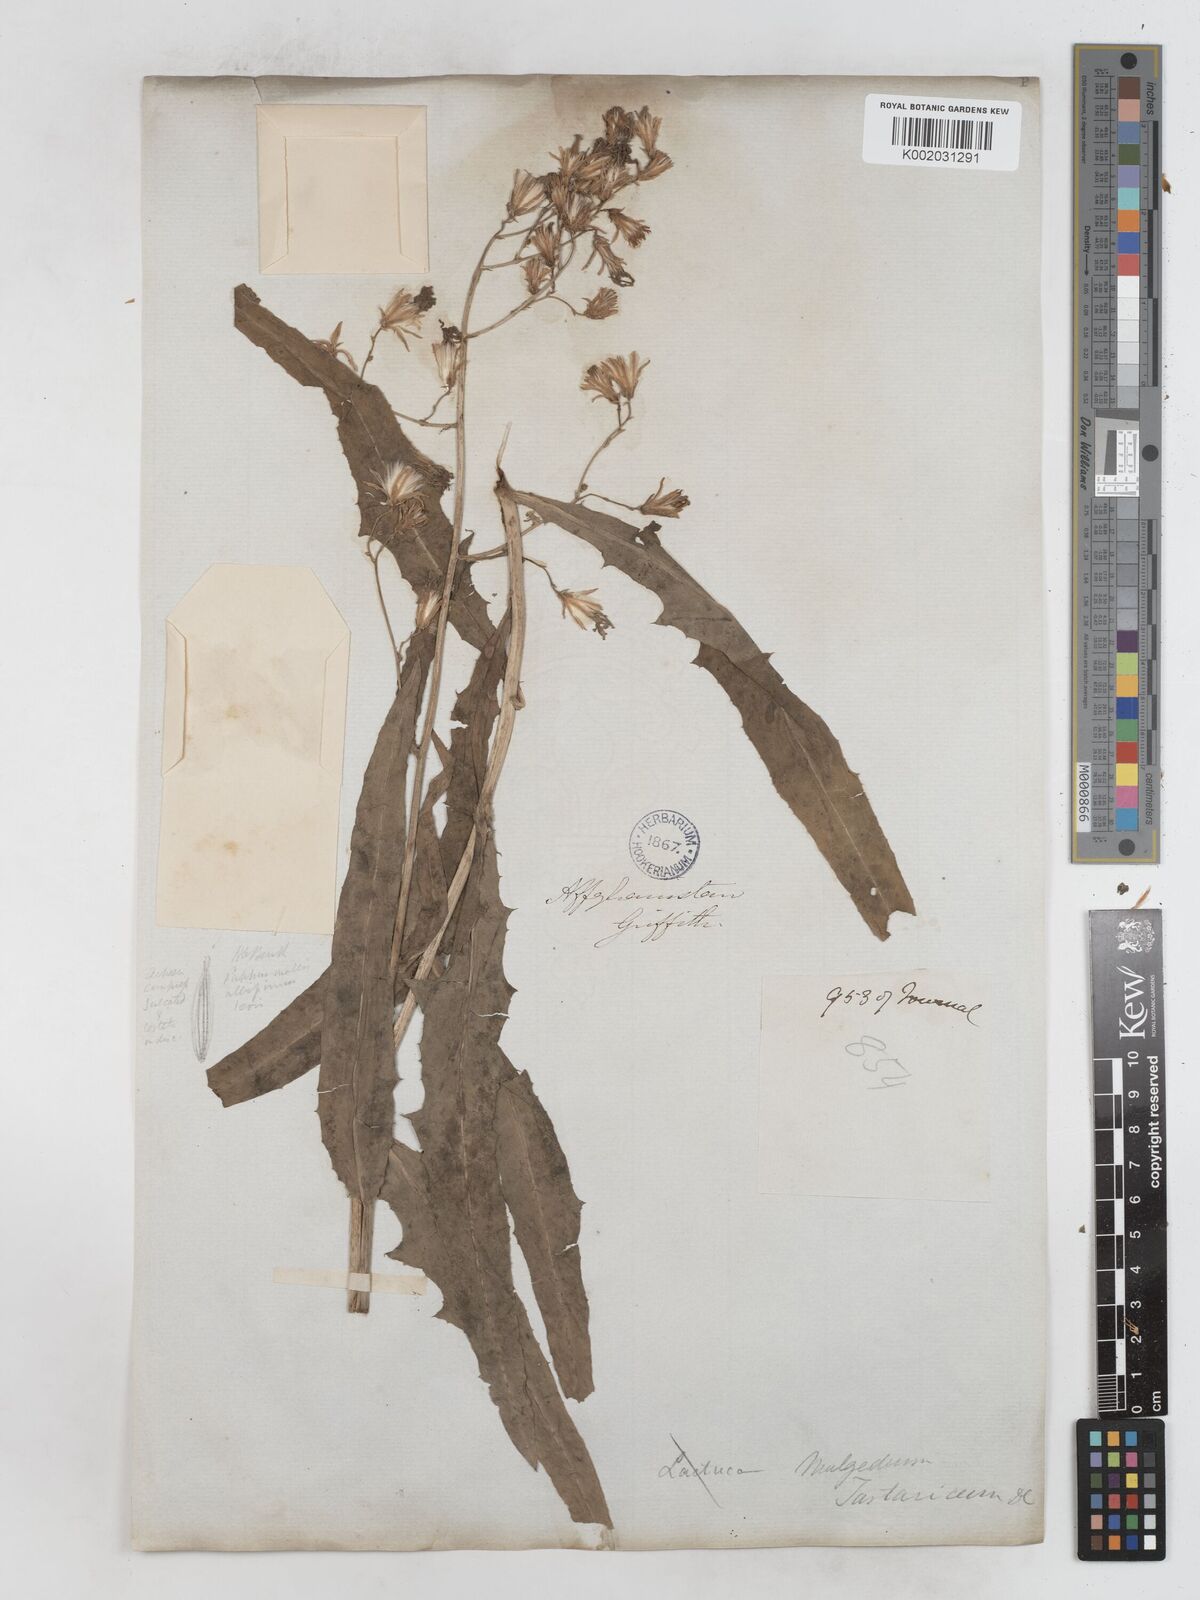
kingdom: Plantae
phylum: Tracheophyta
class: Magnoliopsida
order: Asterales
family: Asteraceae
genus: Lactuca
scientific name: Lactuca tatarica
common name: Blue lettuce
